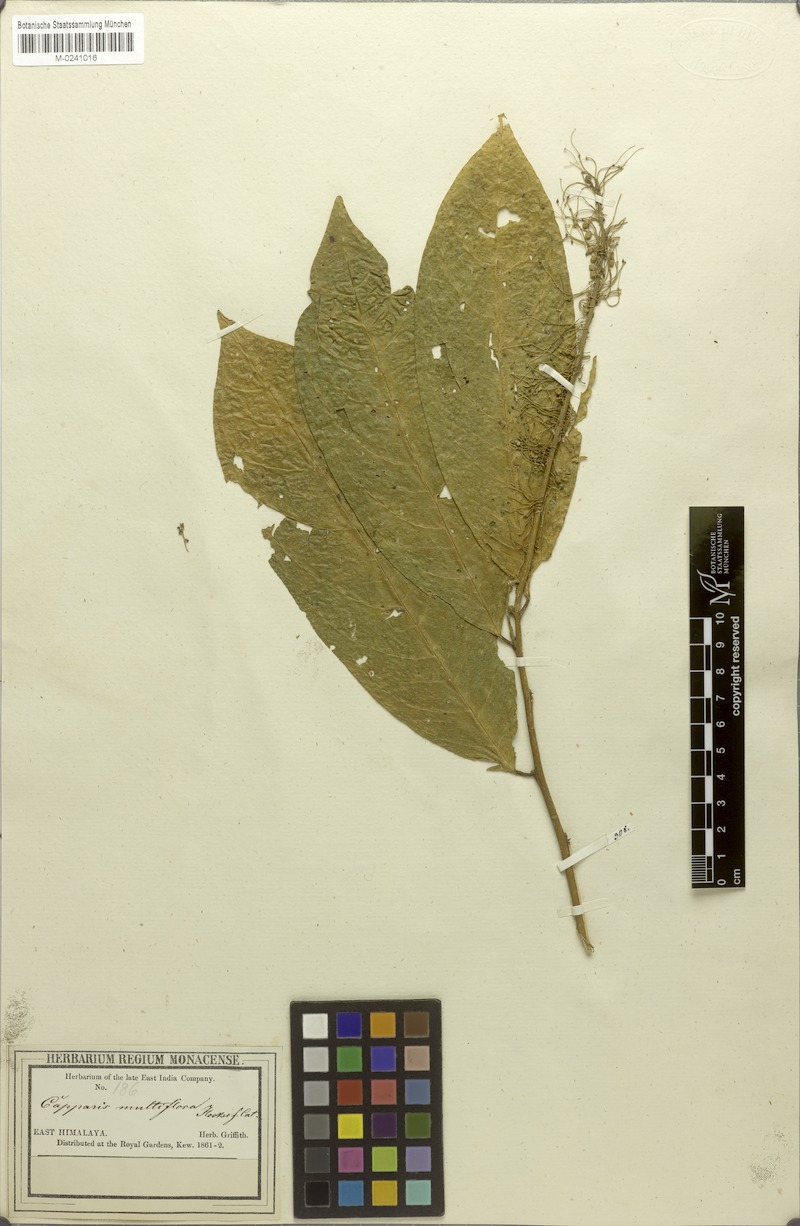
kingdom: Plantae
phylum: Tracheophyta
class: Magnoliopsida
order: Brassicales
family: Capparaceae
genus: Capparis
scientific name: Capparis multiflora
